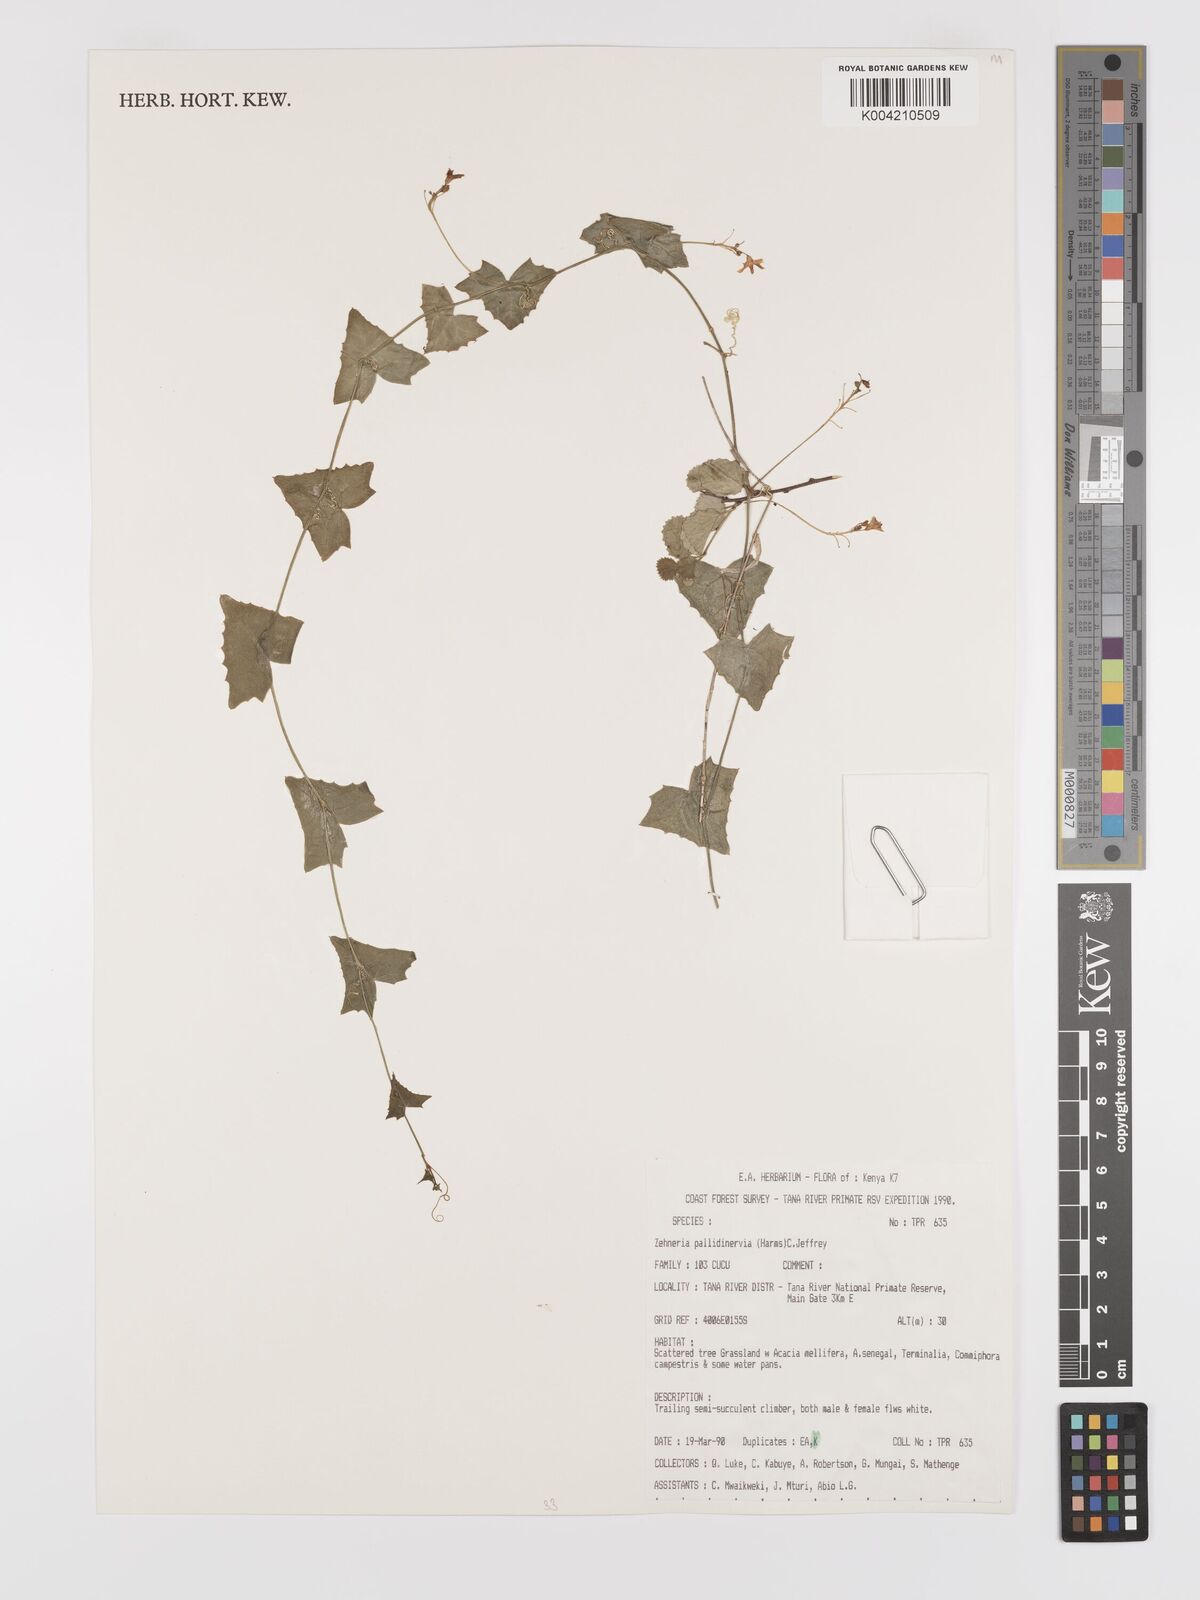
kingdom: Plantae
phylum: Tracheophyta
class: Magnoliopsida
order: Cucurbitales
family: Cucurbitaceae
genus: Zehneria
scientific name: Zehneria pallidinervia
